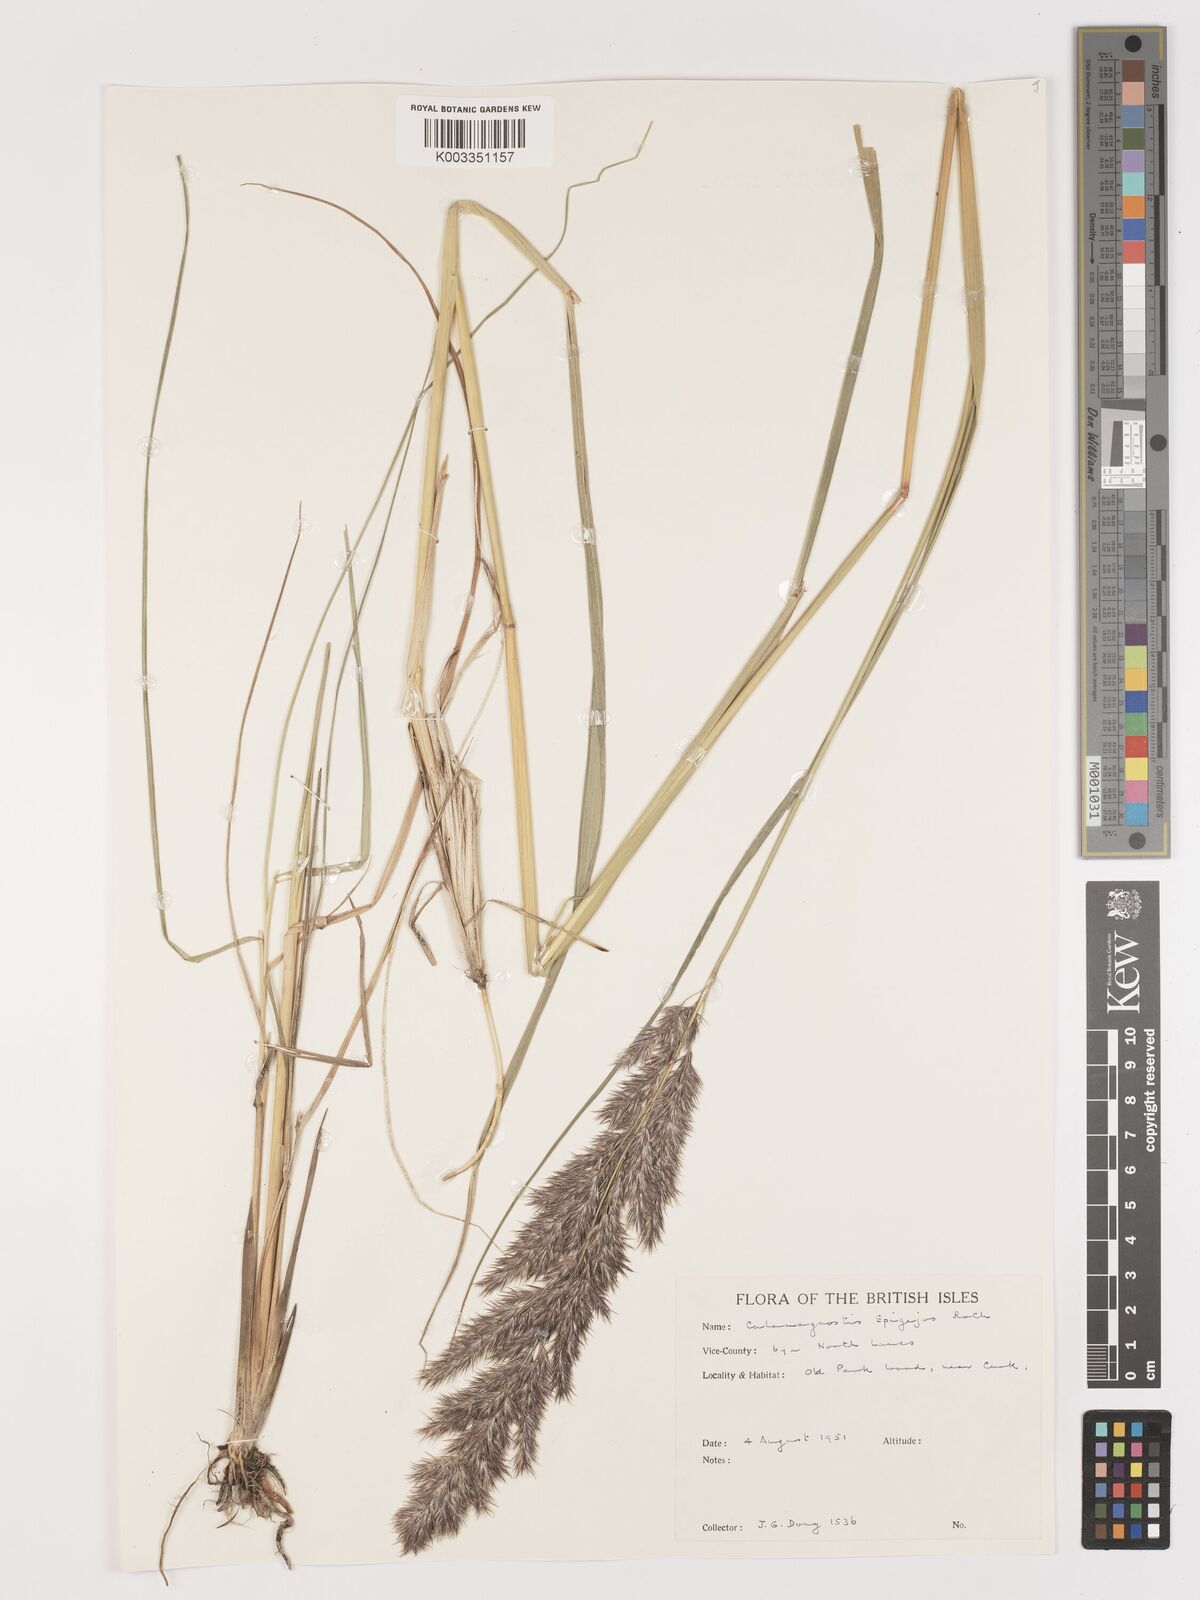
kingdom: Plantae
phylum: Tracheophyta
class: Liliopsida
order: Poales
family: Poaceae
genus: Calamagrostis
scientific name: Calamagrostis
